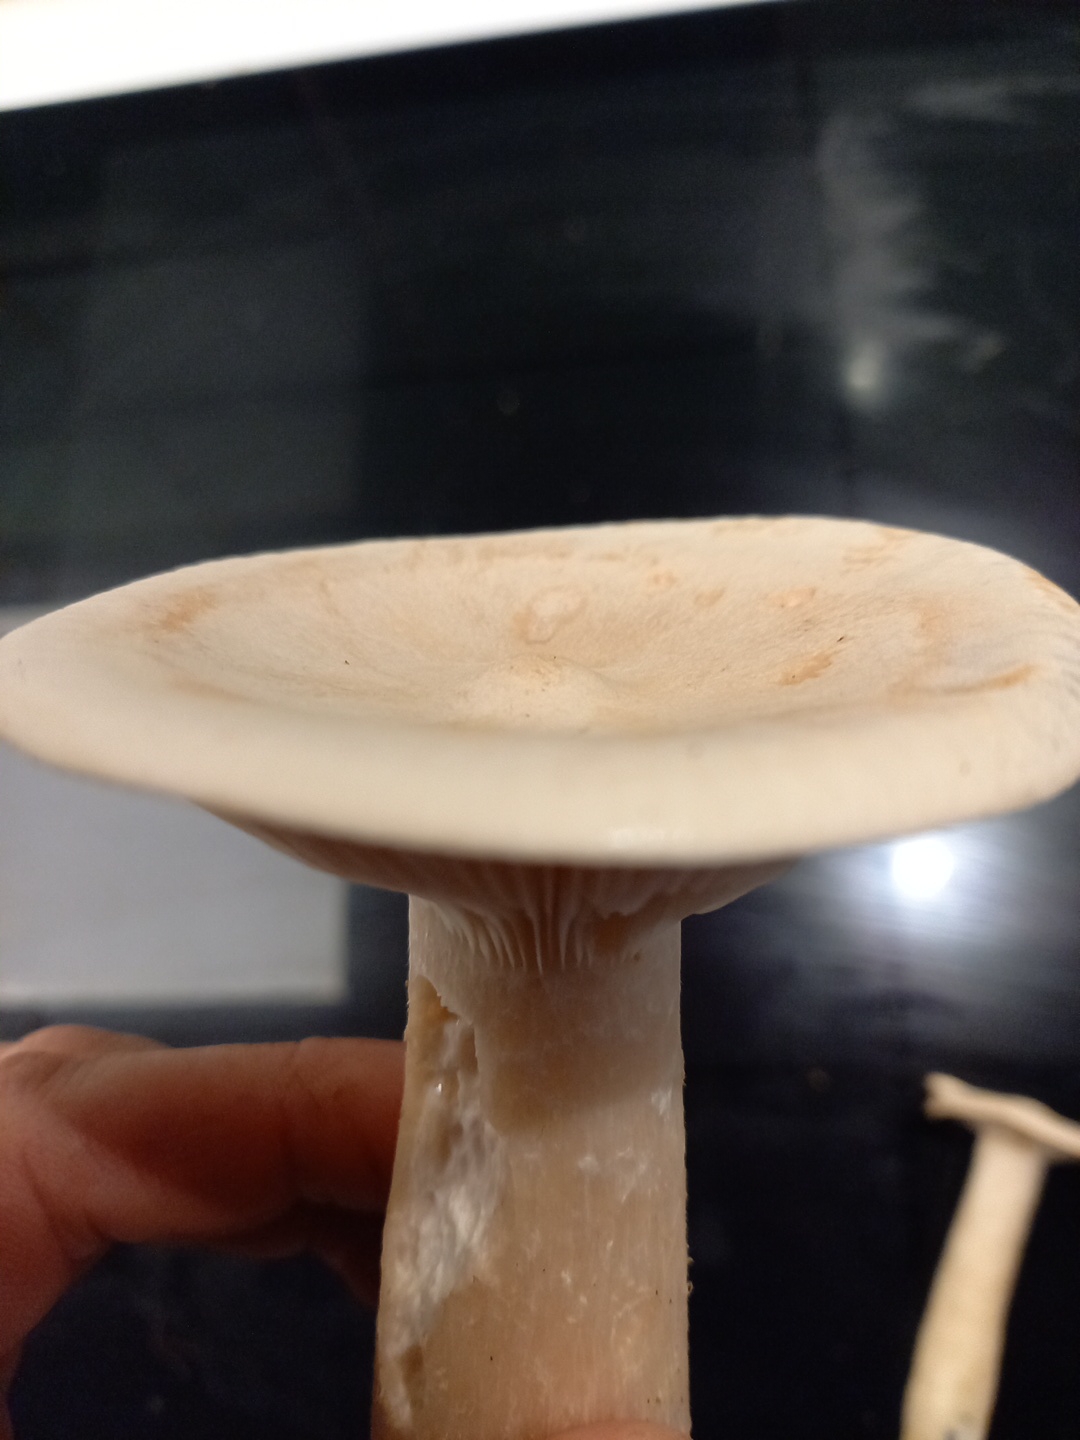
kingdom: Fungi
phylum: Basidiomycota
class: Agaricomycetes
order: Agaricales
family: Tricholomataceae
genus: Infundibulicybe
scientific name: Infundibulicybe geotropa
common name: stor tragthat
